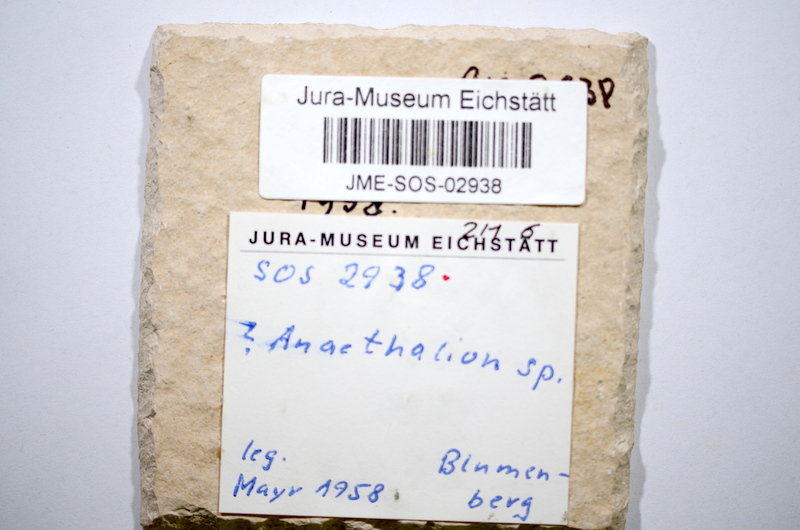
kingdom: Animalia
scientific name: Animalia
